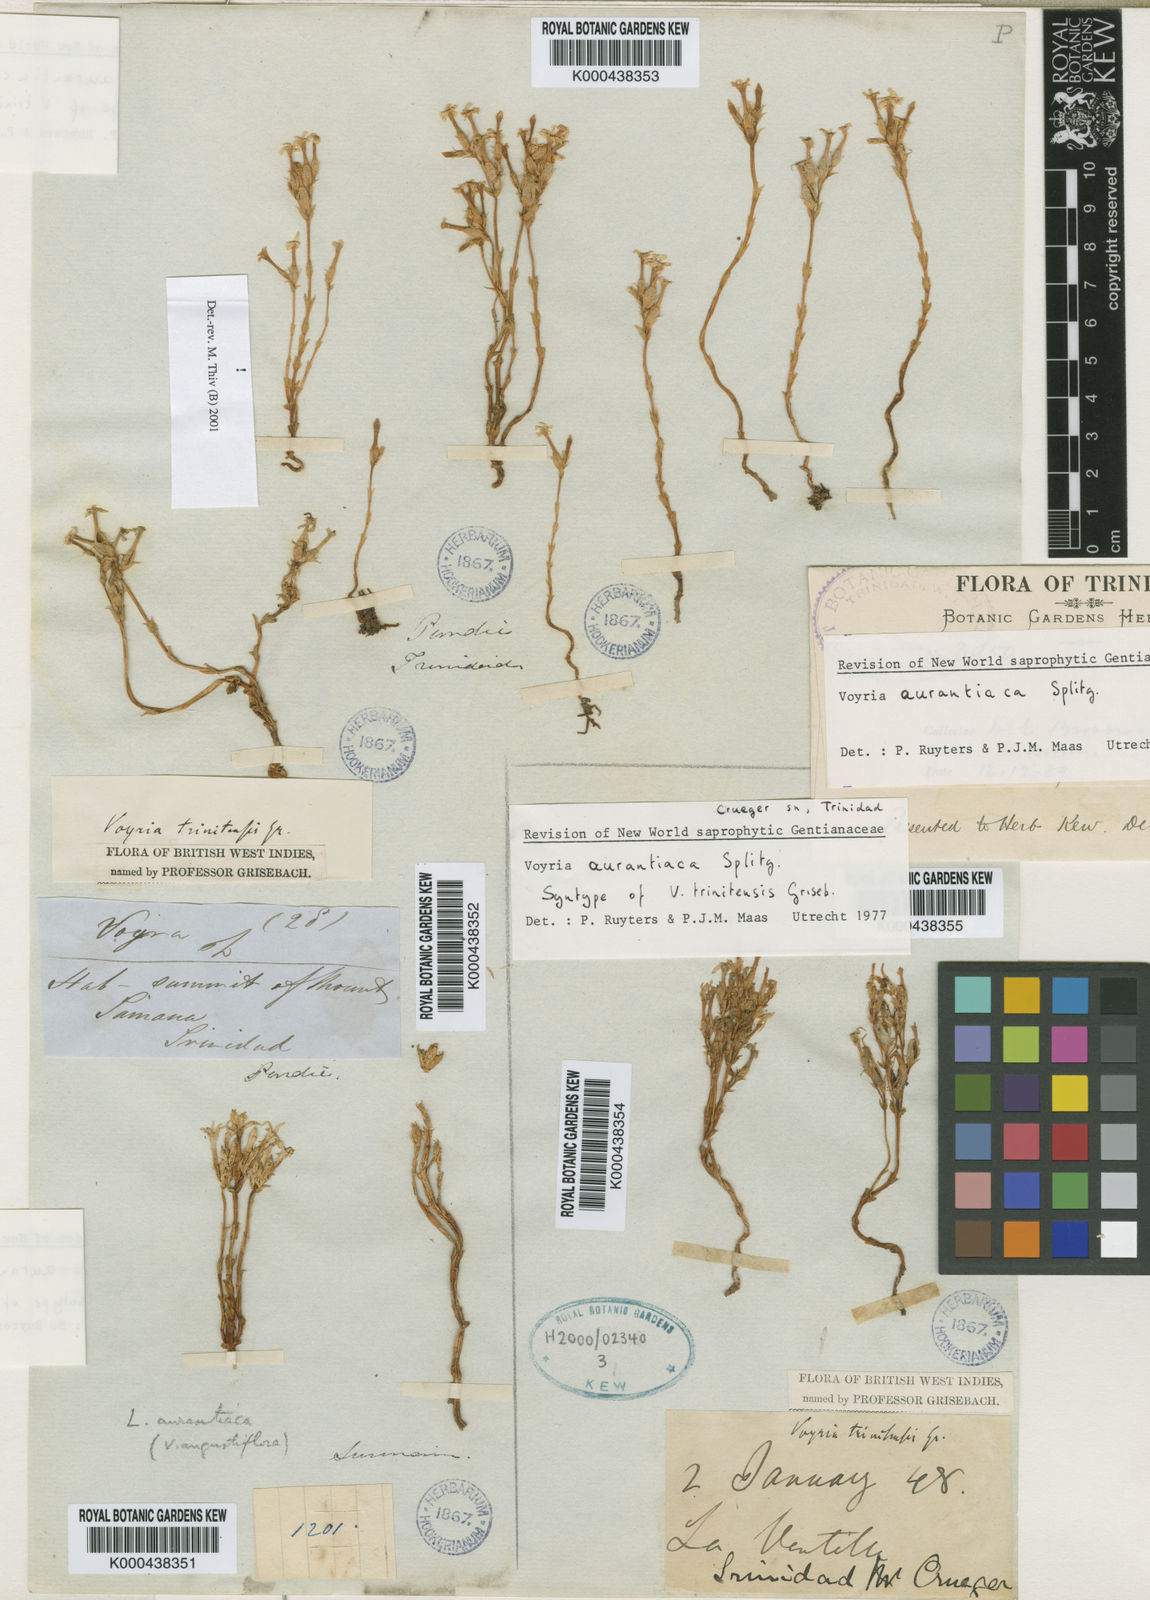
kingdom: Plantae
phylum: Tracheophyta
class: Magnoliopsida
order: Gentianales
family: Gentianaceae
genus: Voyria
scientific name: Voyria aurantiaca
